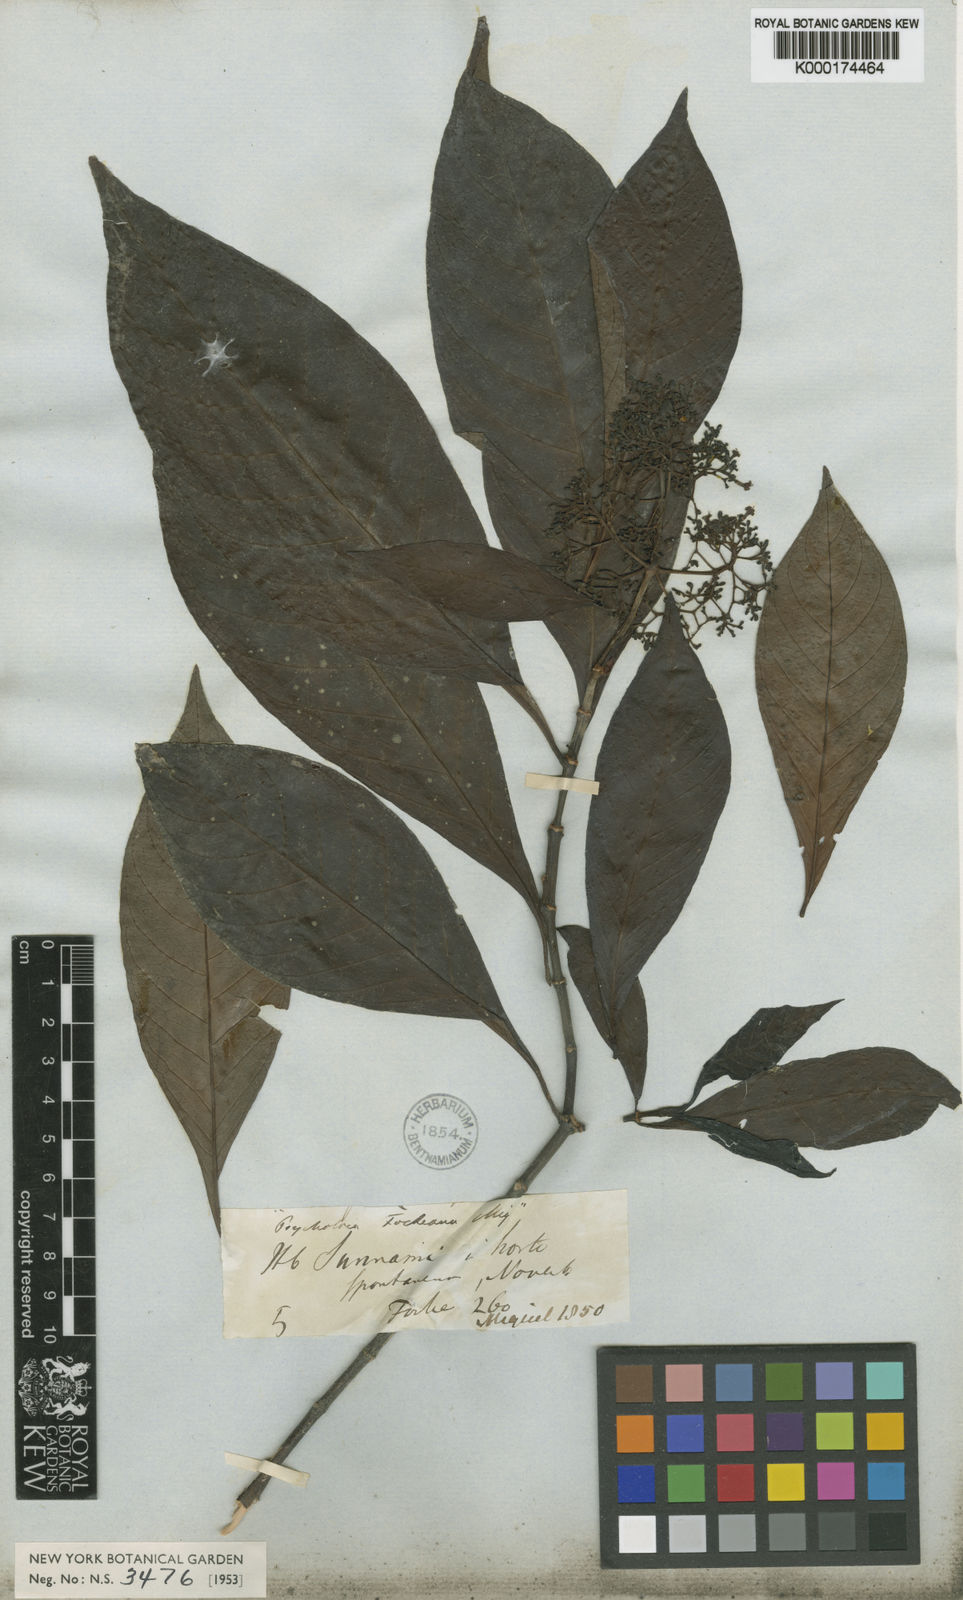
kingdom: Plantae
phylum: Tracheophyta
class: Magnoliopsida
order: Gentianales
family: Rubiaceae
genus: Psychotria
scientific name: Psychotria carthagenensis
